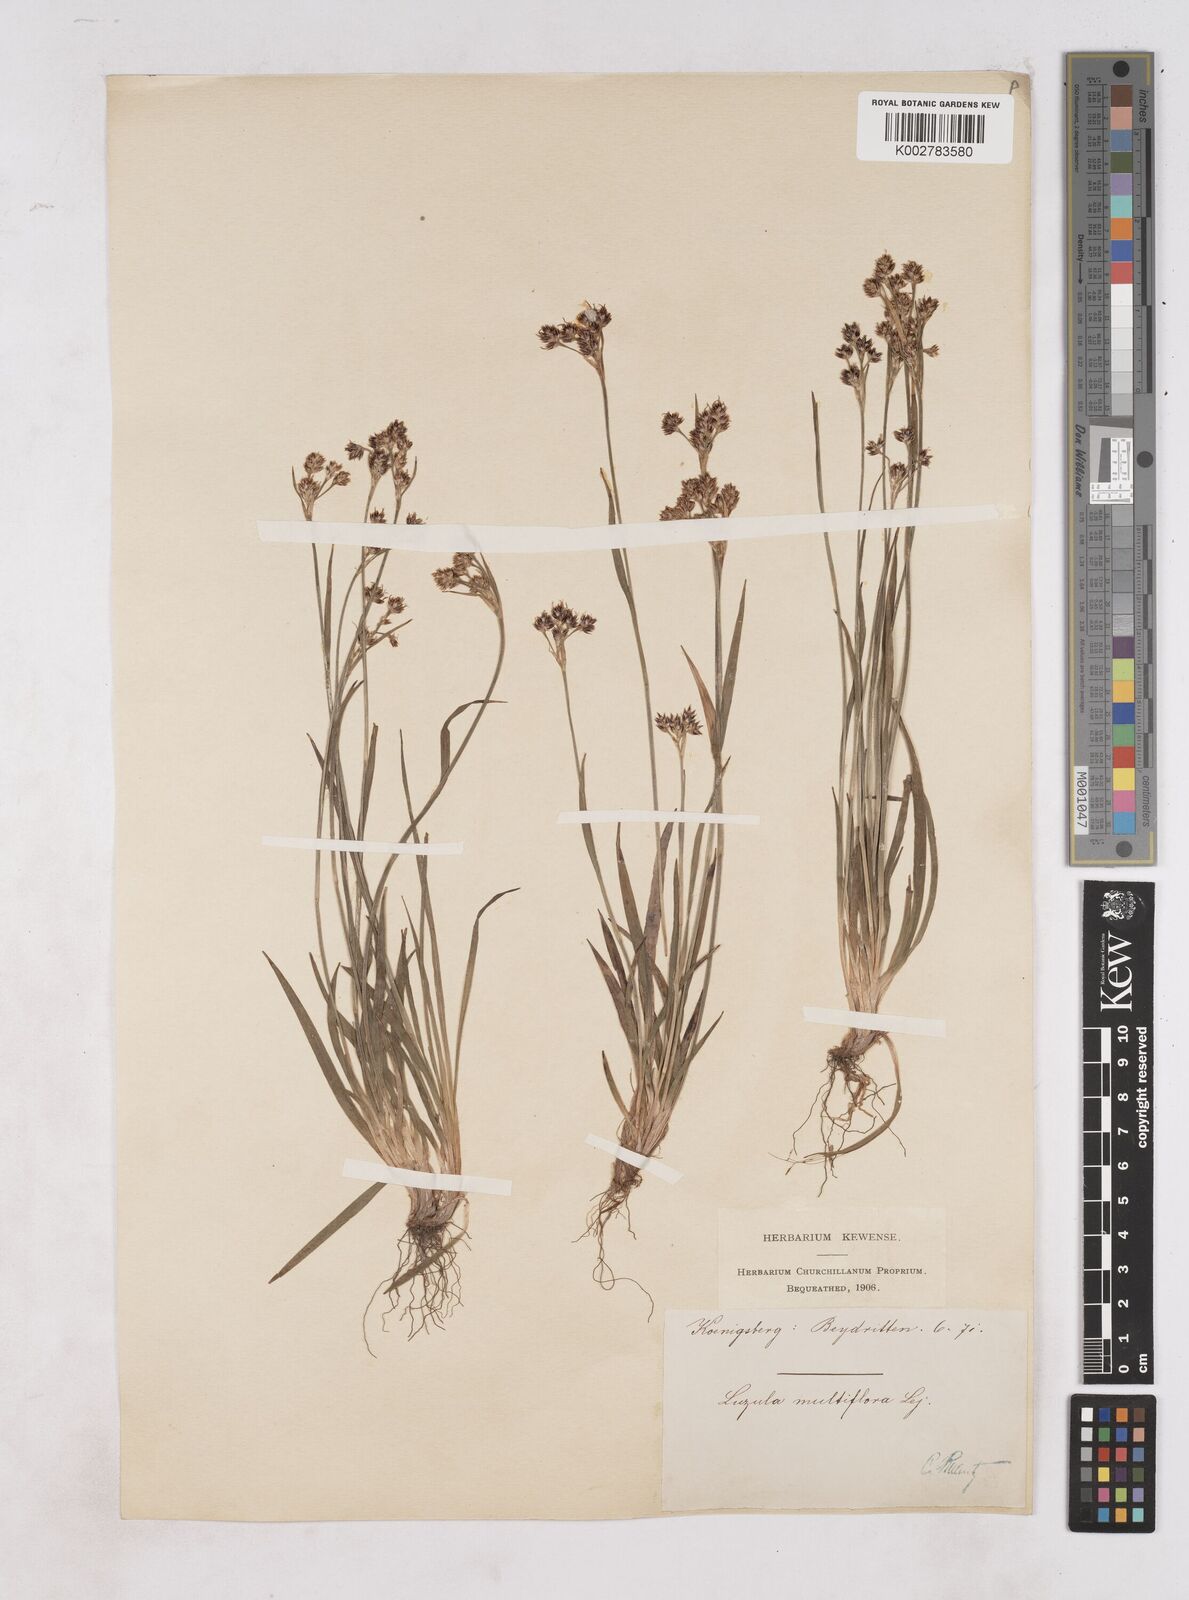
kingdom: Plantae
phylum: Tracheophyta
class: Liliopsida
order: Poales
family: Juncaceae
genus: Luzula
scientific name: Luzula
